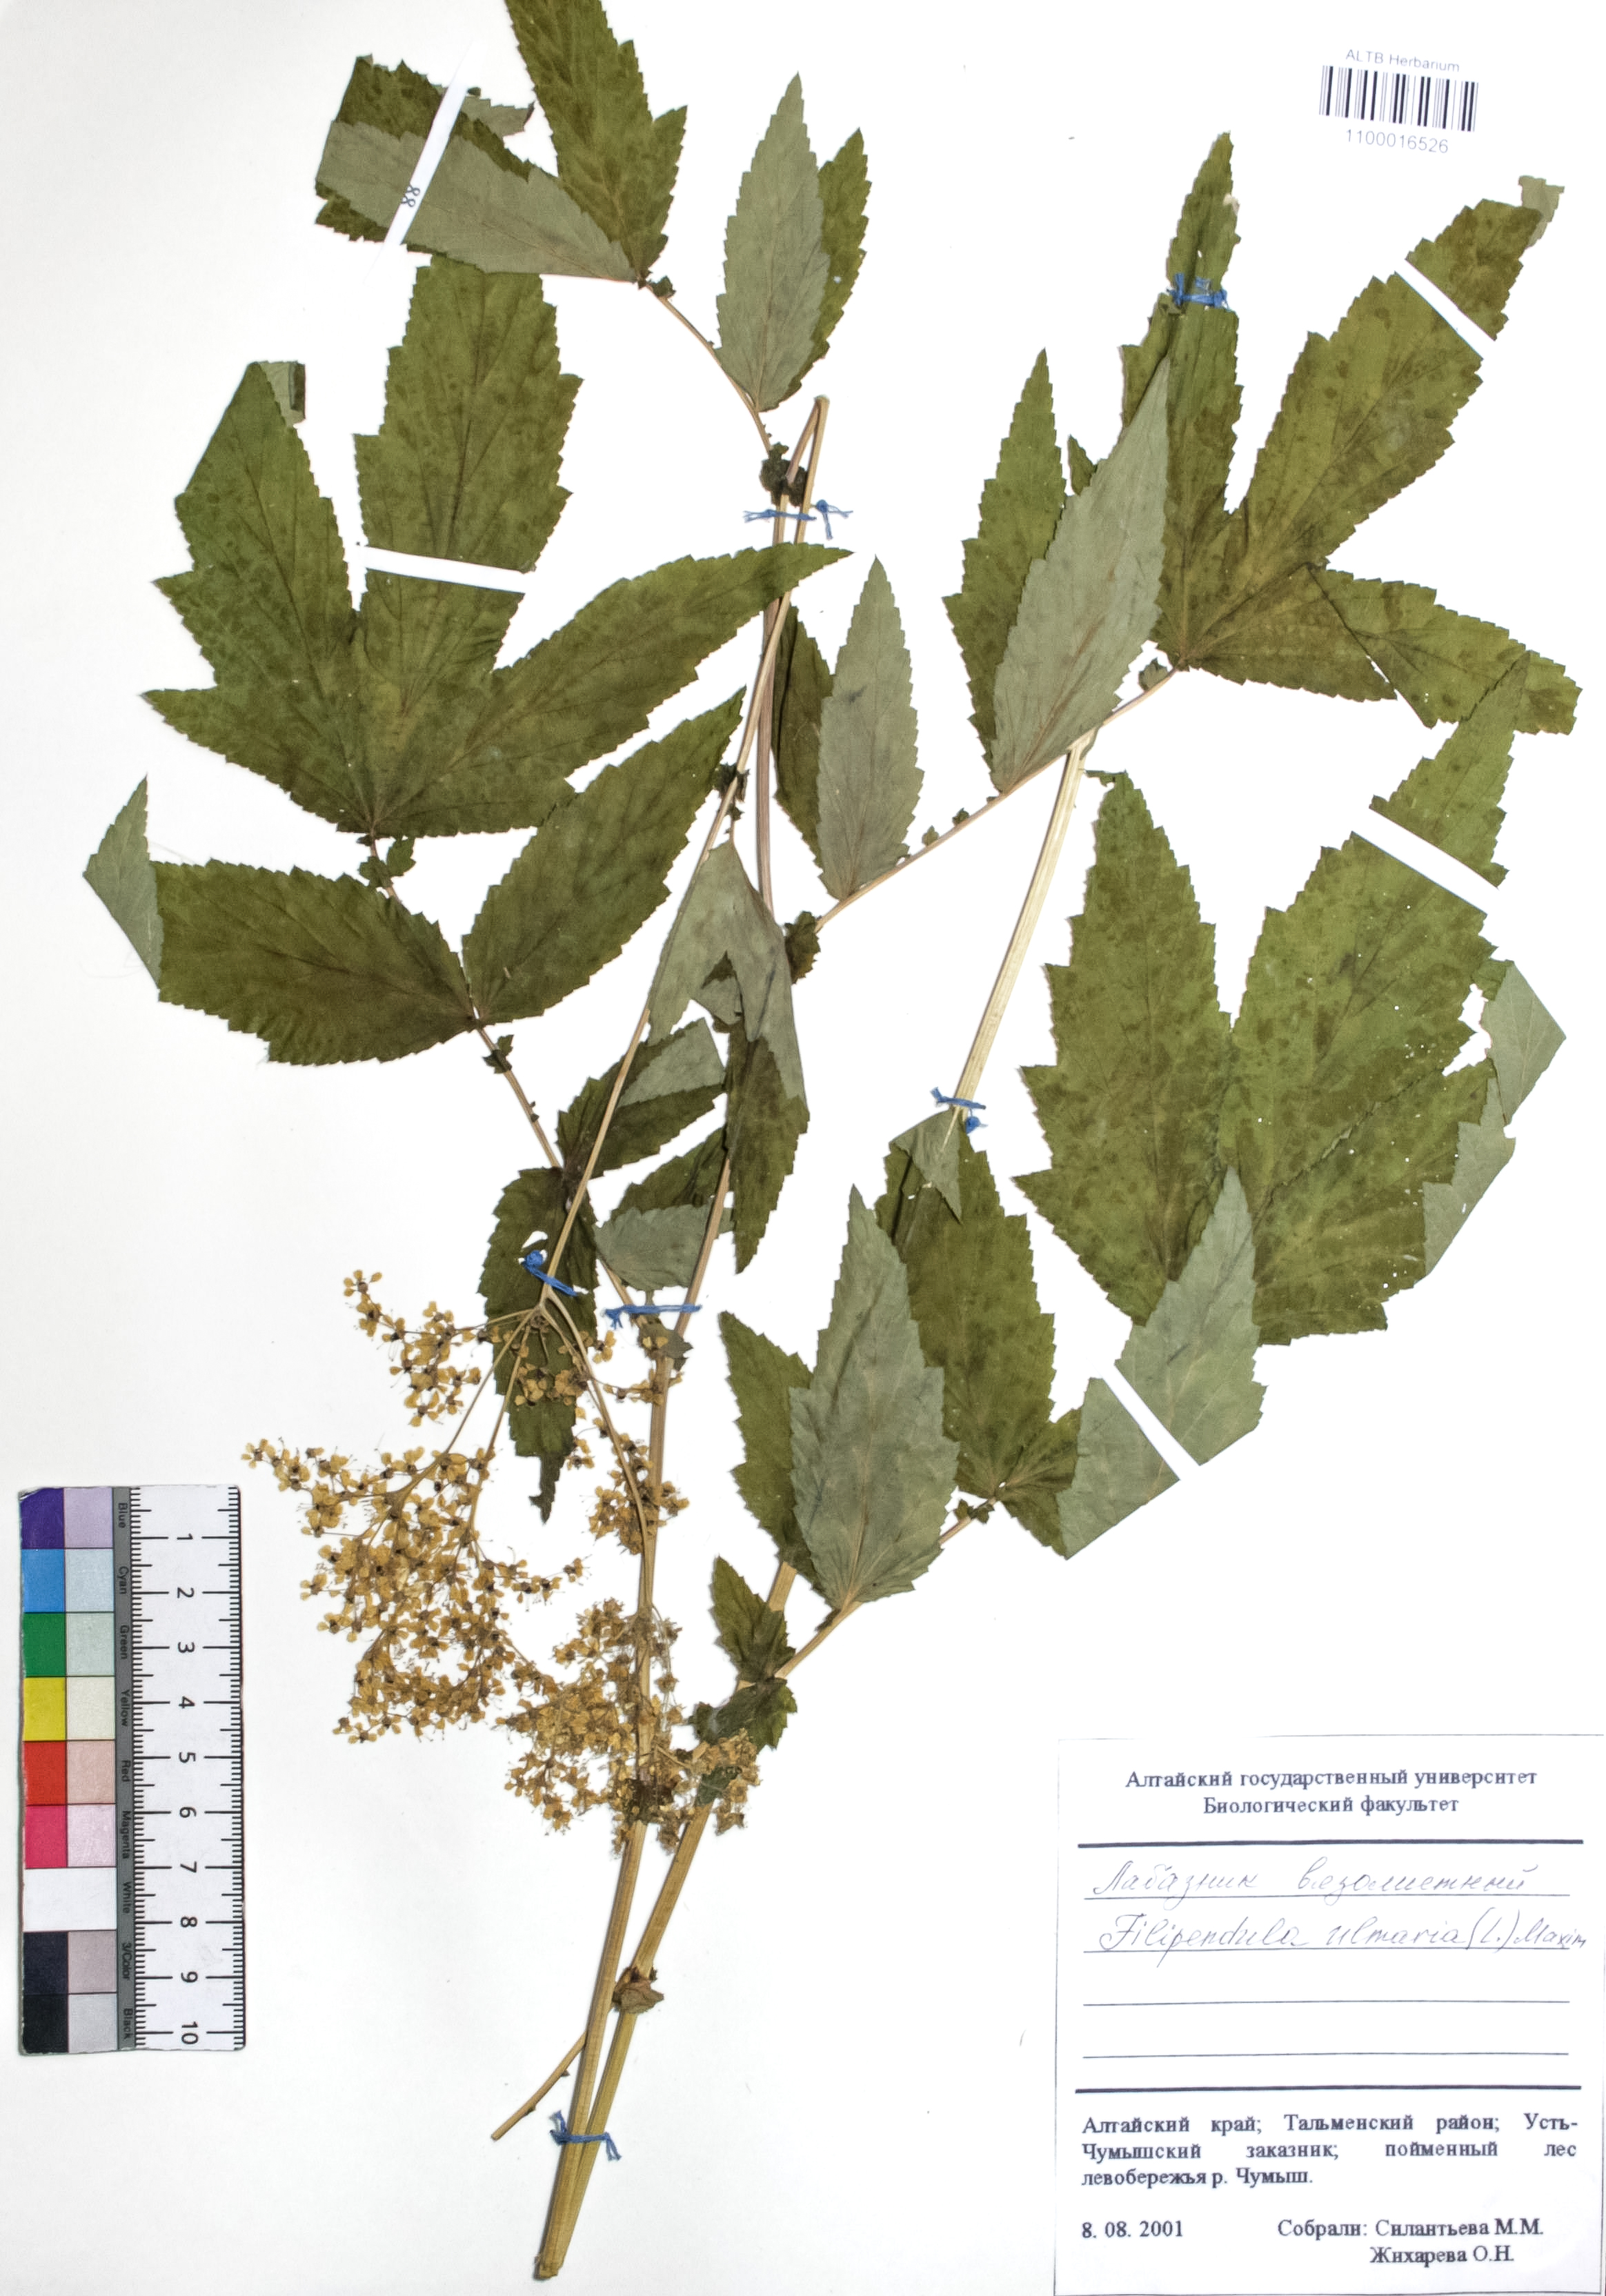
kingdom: Plantae
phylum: Tracheophyta
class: Magnoliopsida
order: Rosales
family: Rosaceae
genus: Filipendula
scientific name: Filipendula ulmaria
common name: Meadowsweet
